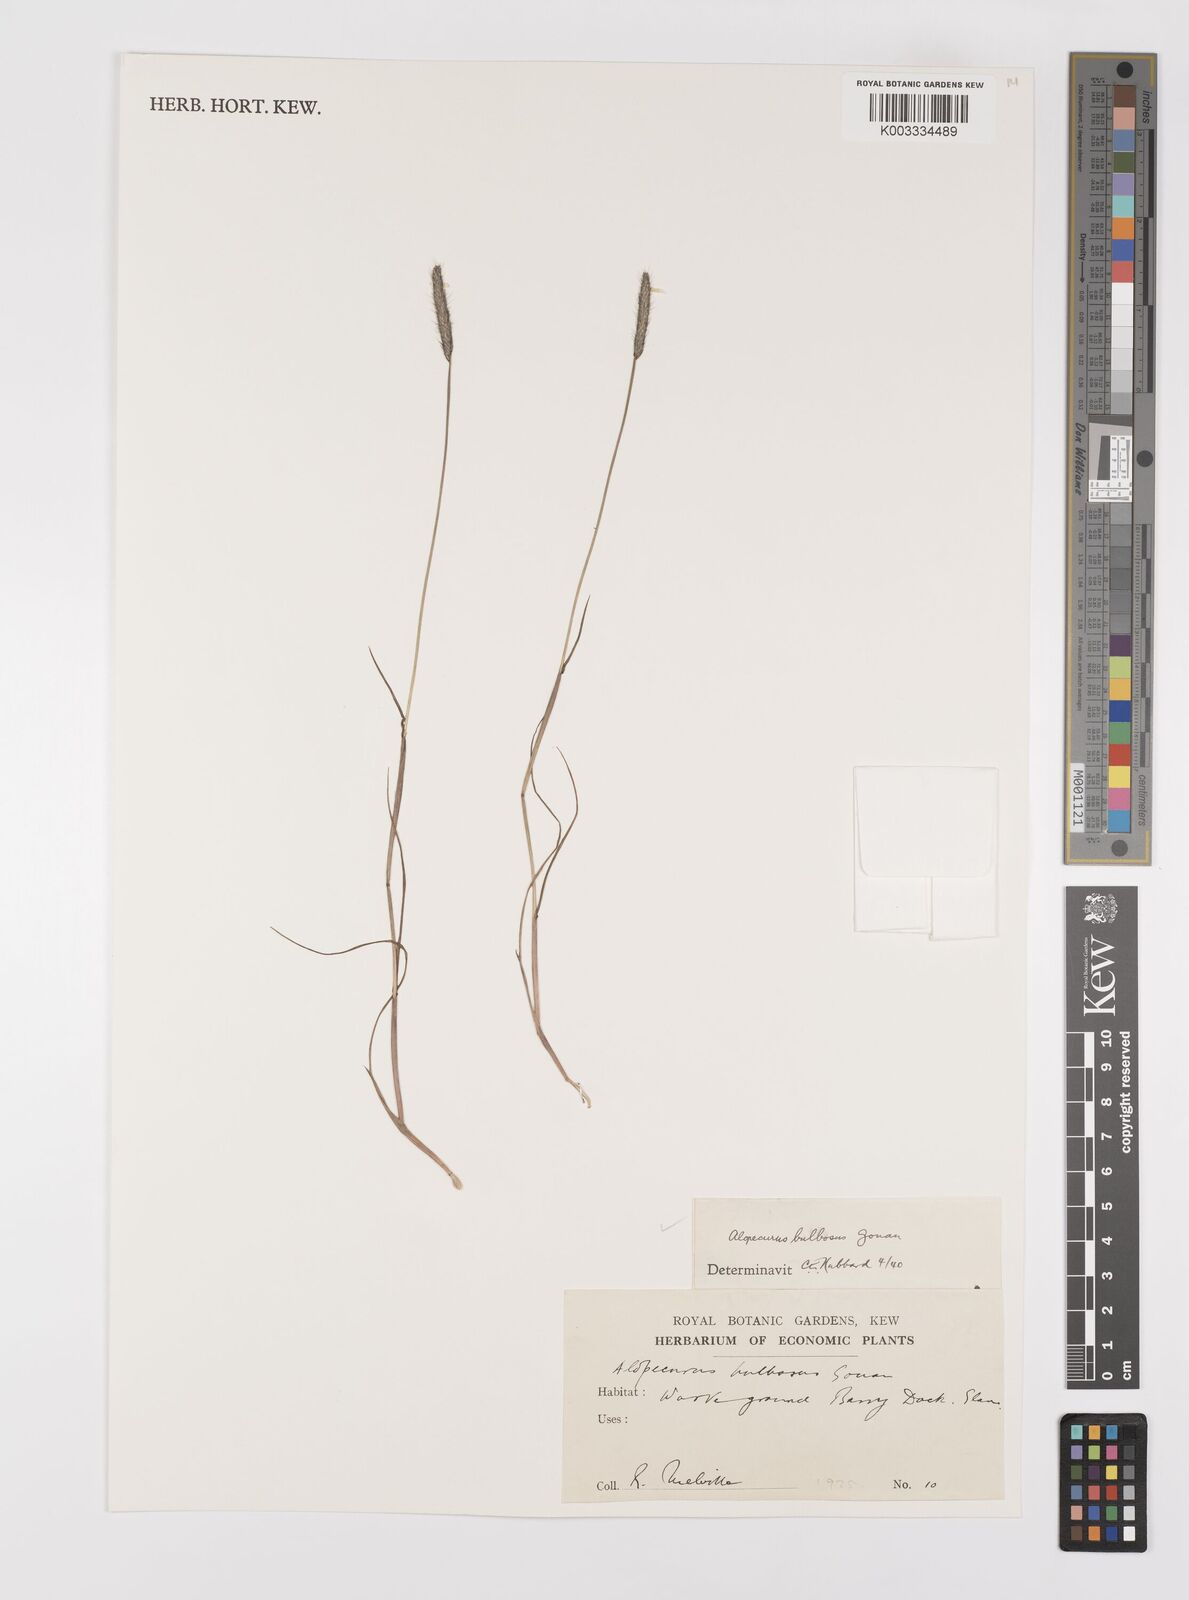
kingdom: Plantae
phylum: Tracheophyta
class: Liliopsida
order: Poales
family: Poaceae
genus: Alopecurus
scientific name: Alopecurus bulbosus
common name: Bulbous foxtail
